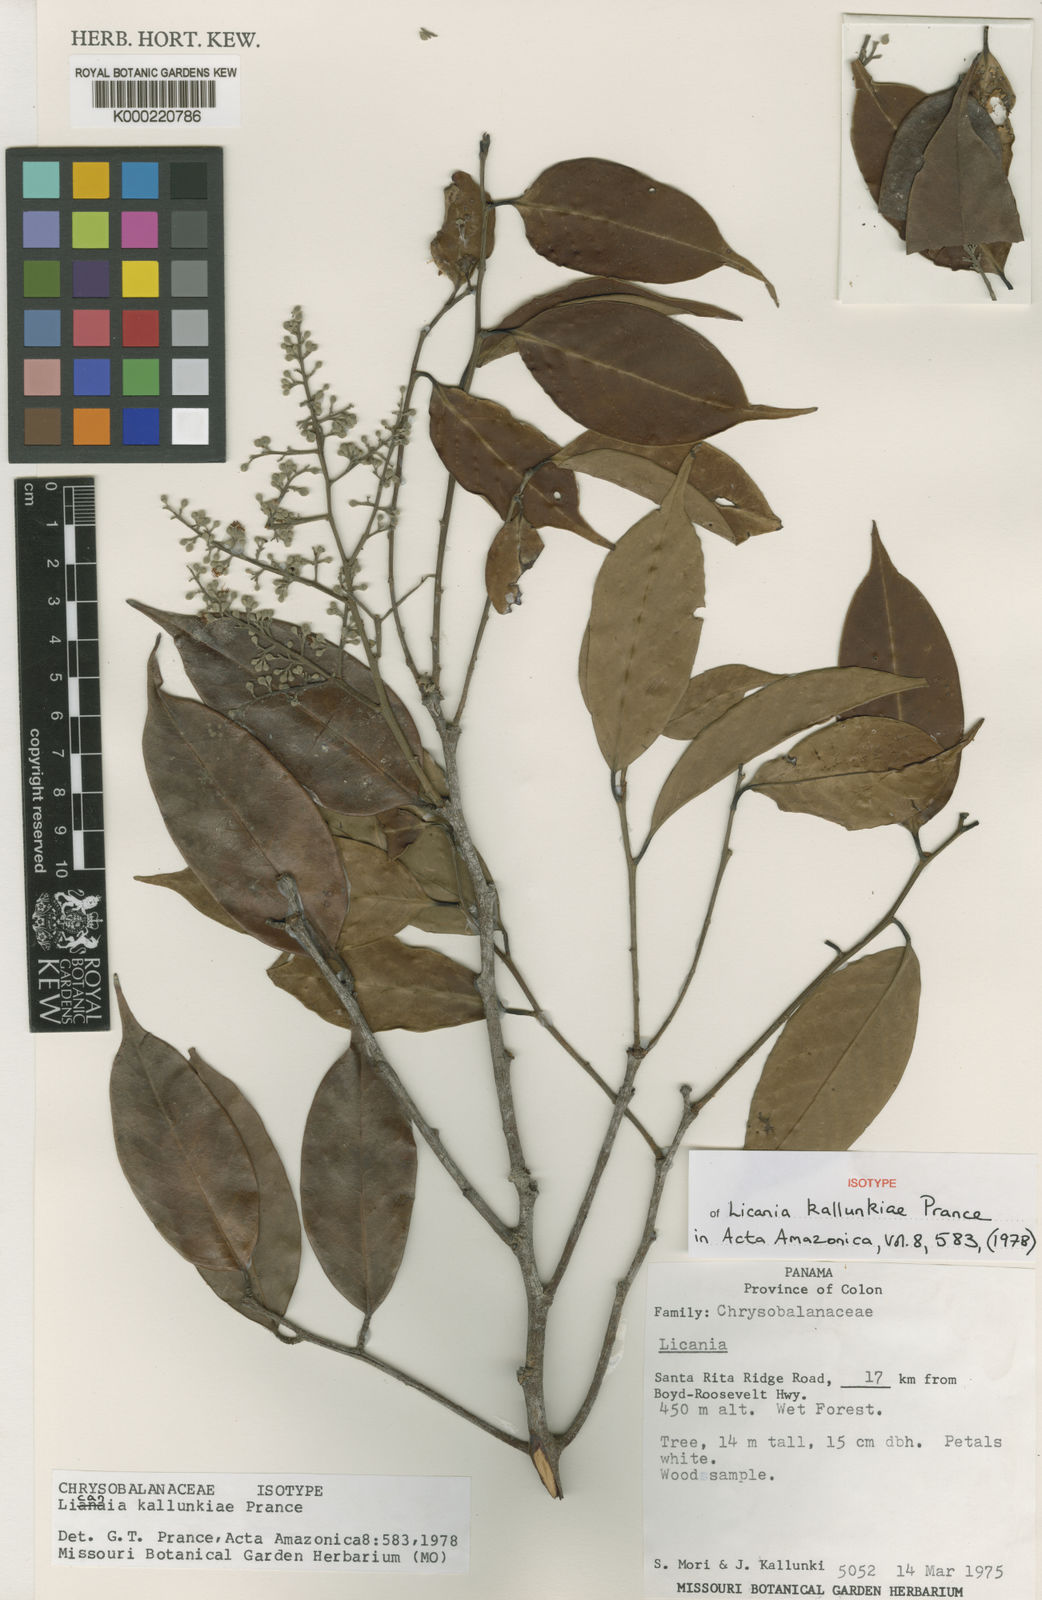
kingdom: Plantae
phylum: Tracheophyta
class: Magnoliopsida
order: Malpighiales
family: Chrysobalanaceae
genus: Moquilea
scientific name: Moquilea kallunkiae
